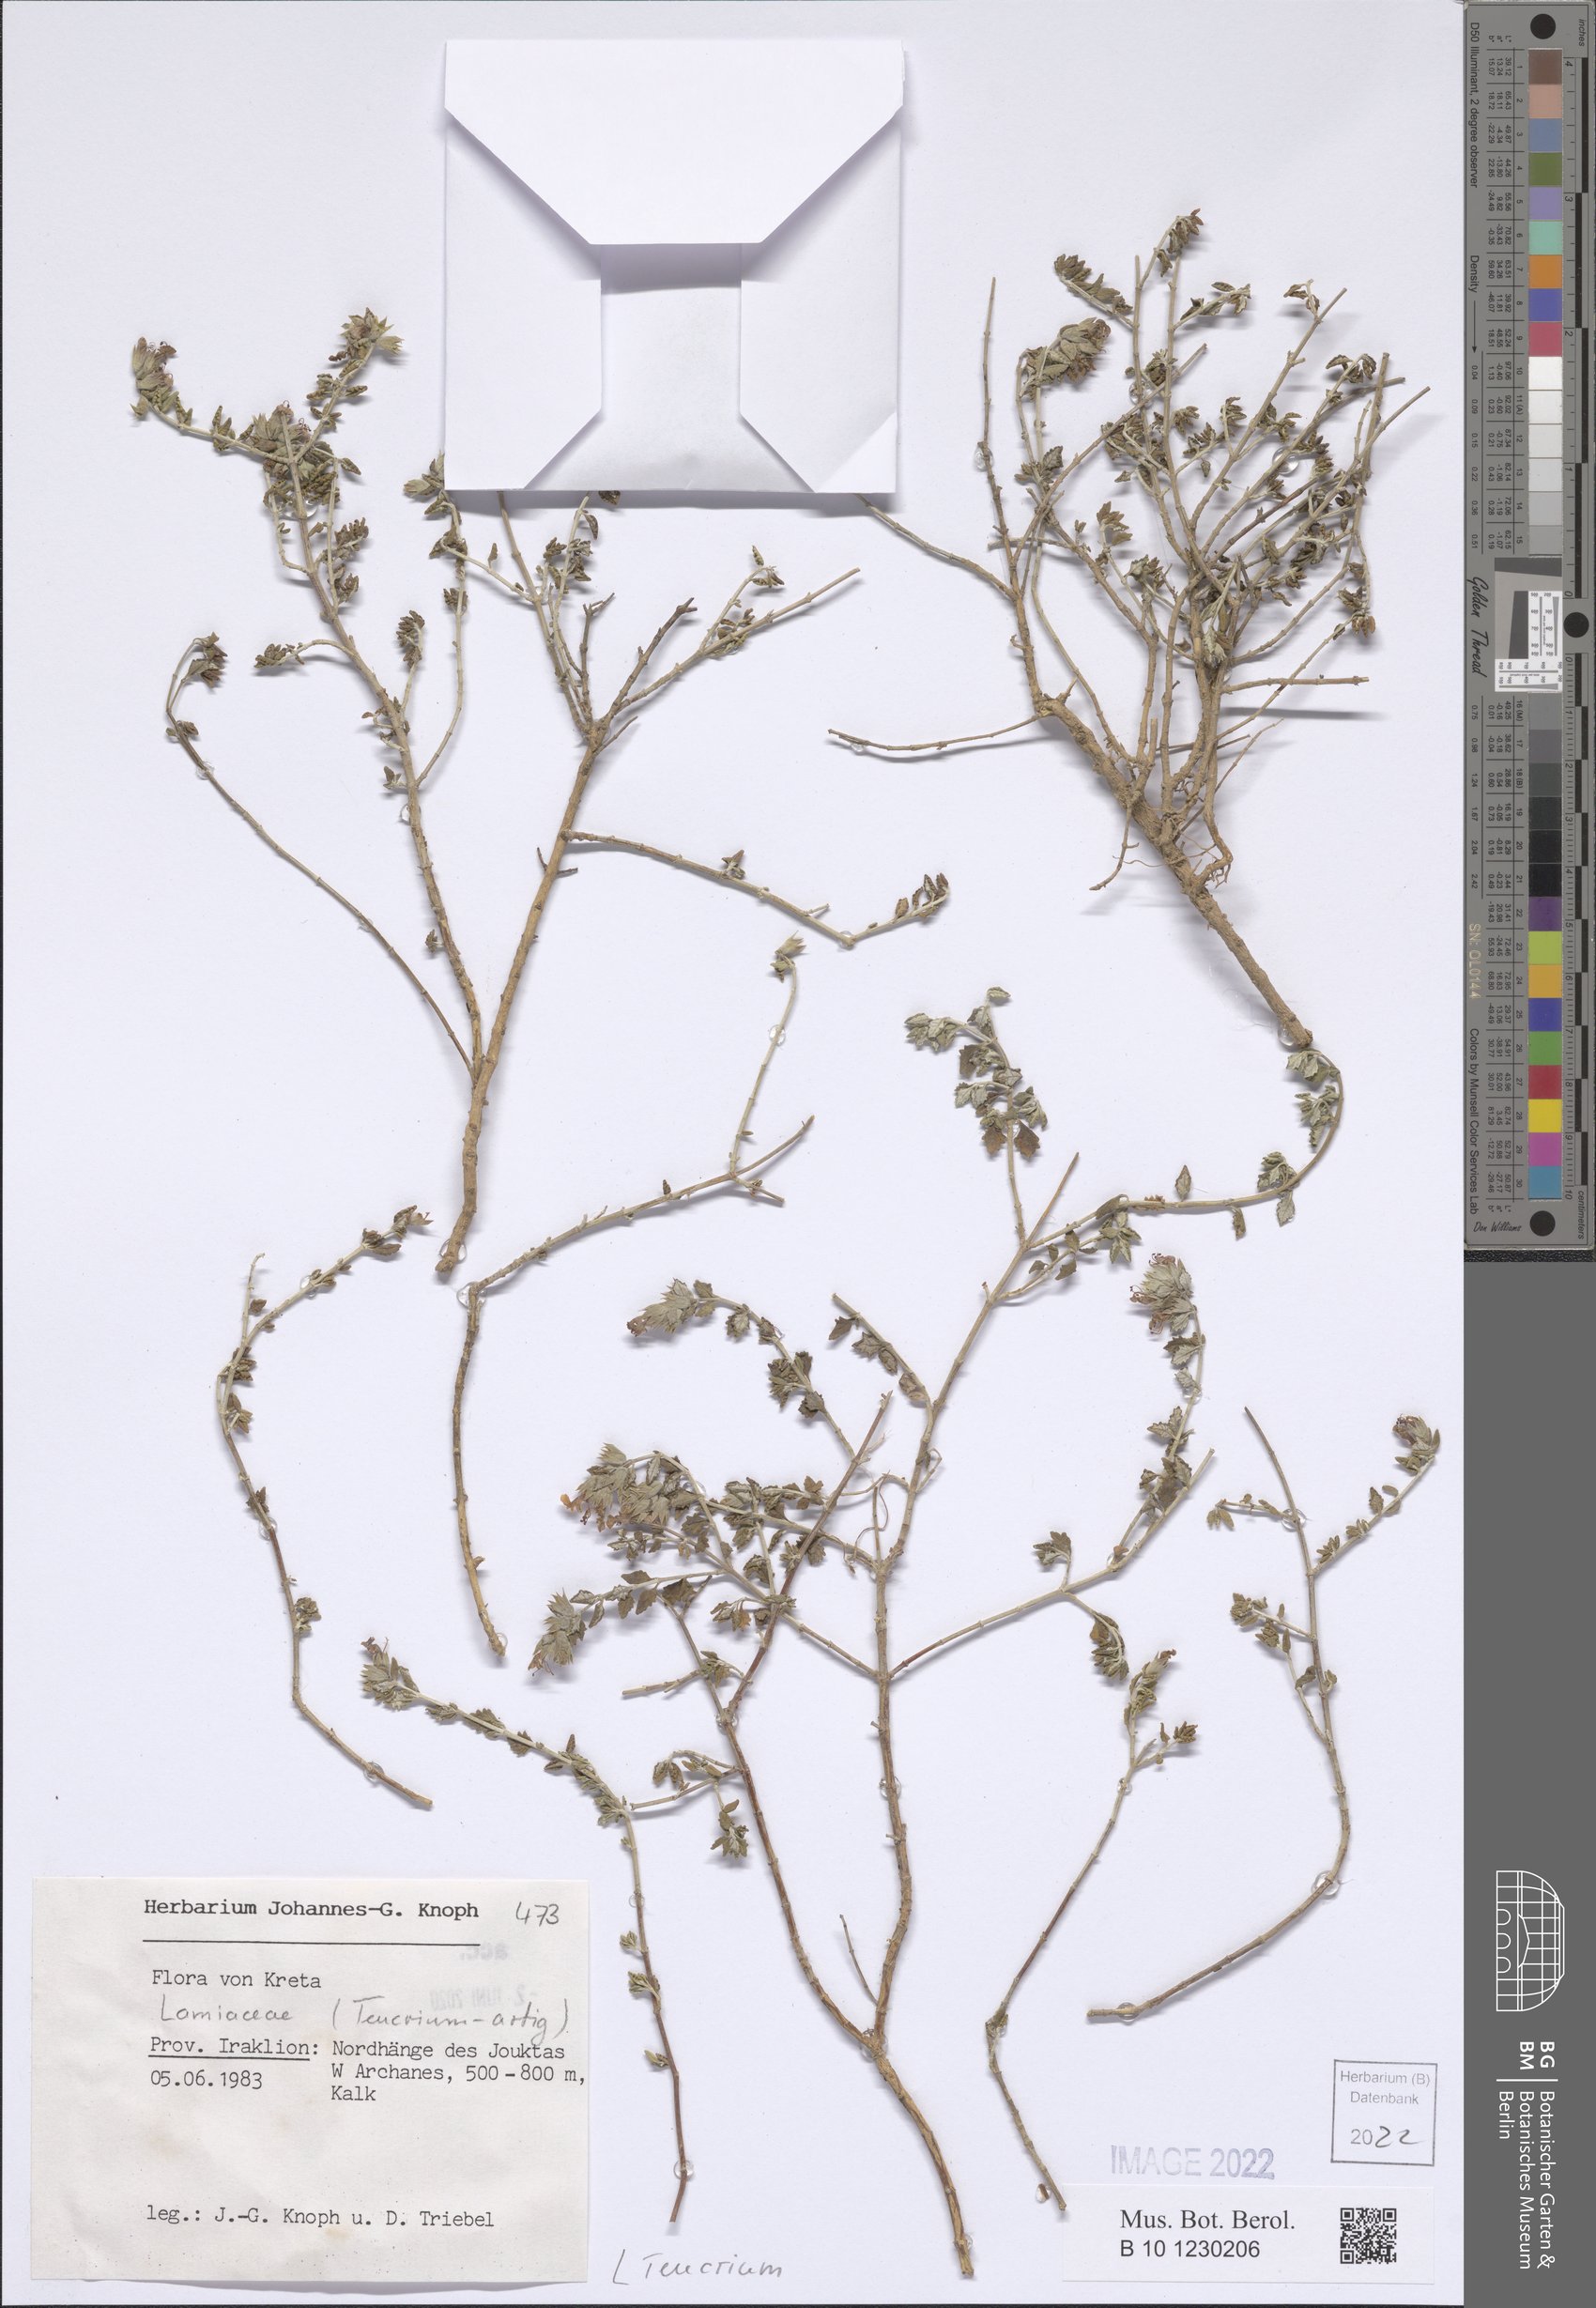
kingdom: Plantae
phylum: Tracheophyta
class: Magnoliopsida
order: Lamiales
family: Lamiaceae
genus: Teucrium
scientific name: Teucrium
